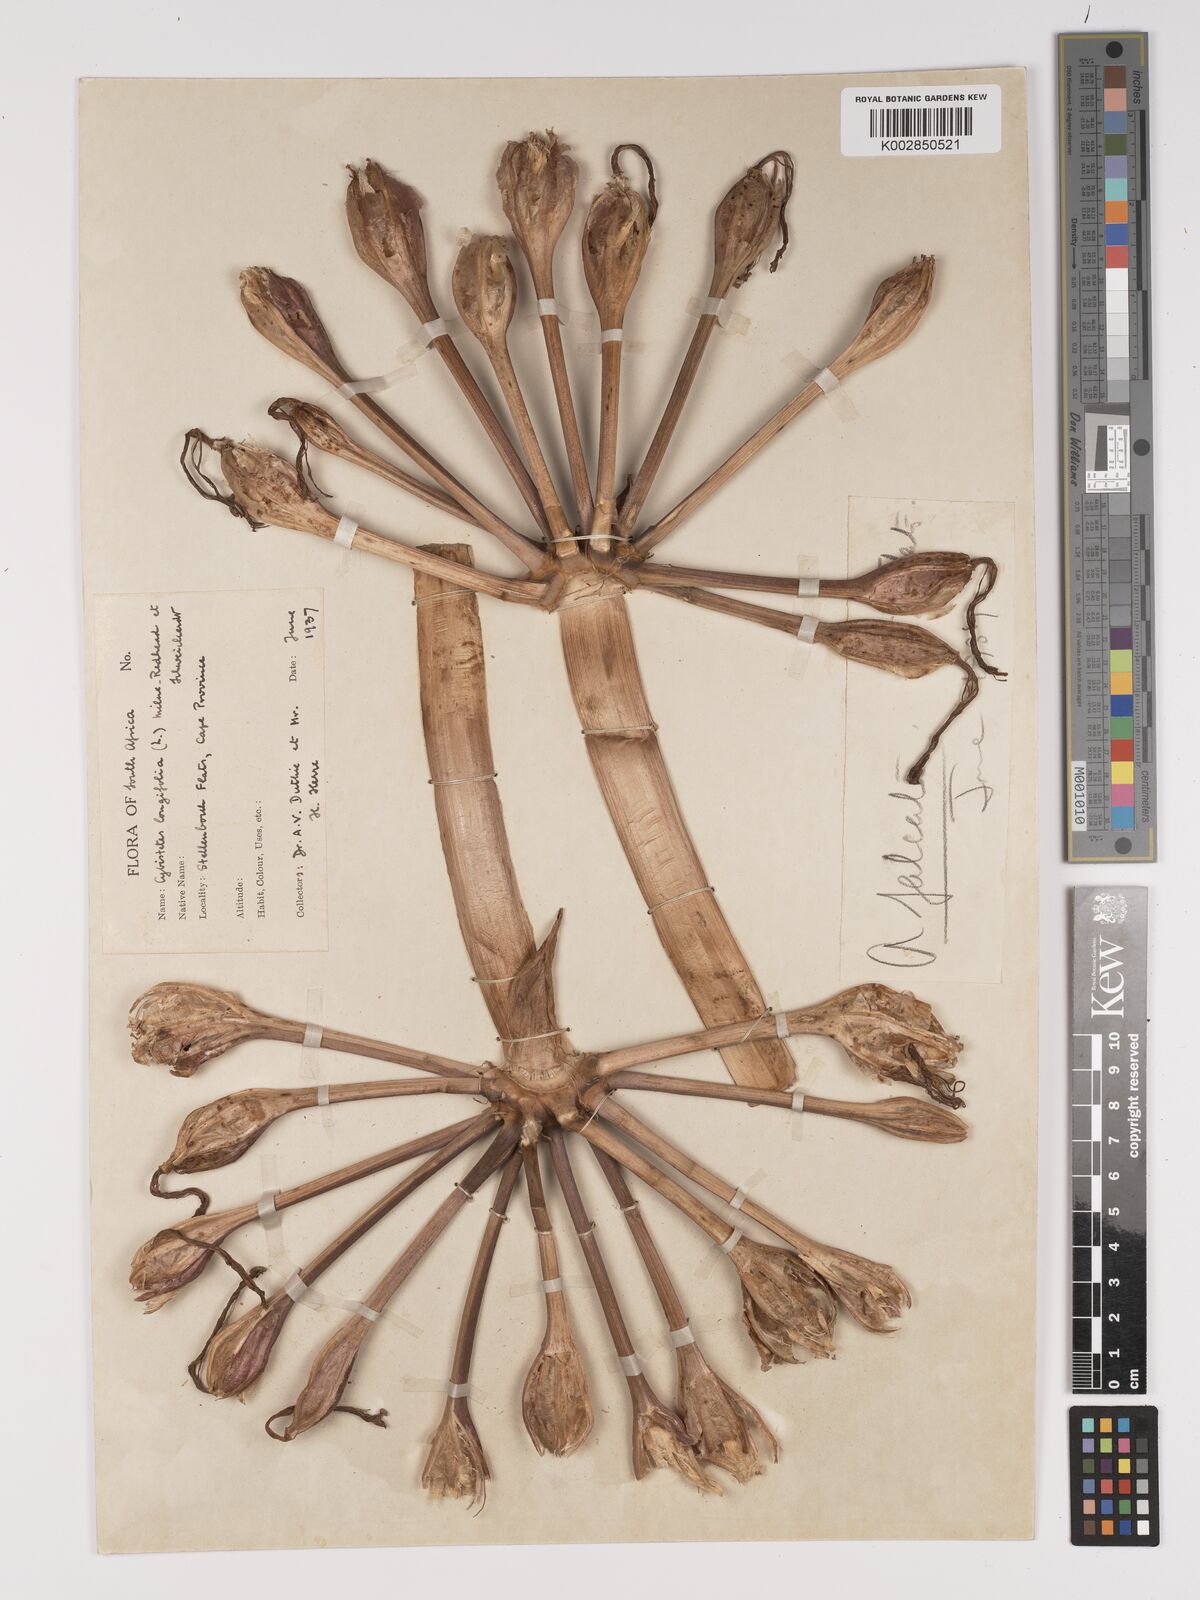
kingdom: Plantae
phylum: Tracheophyta
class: Liliopsida
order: Asparagales
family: Amaryllidaceae
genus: Ammocharis
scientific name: Ammocharis longifolia
